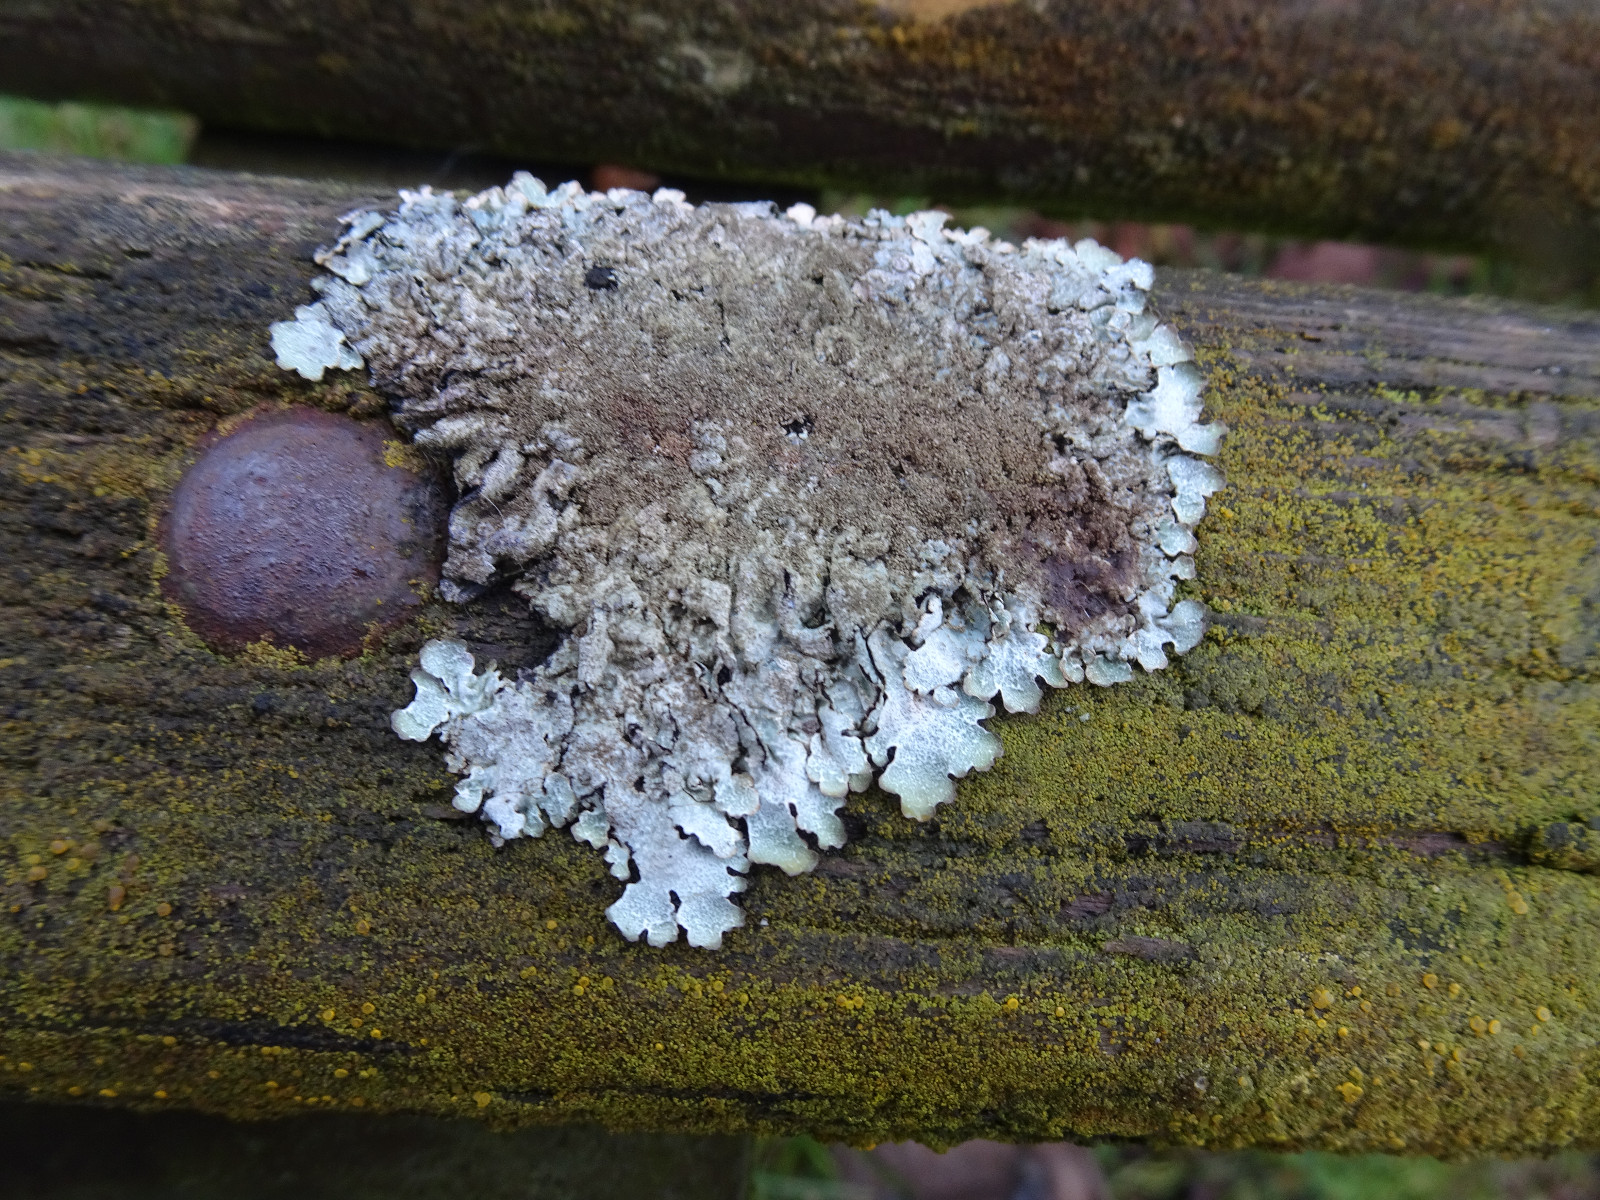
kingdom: Fungi
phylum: Ascomycota
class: Lecanoromycetes
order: Lecanorales
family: Parmeliaceae
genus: Parmelia
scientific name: Parmelia
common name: farve-skållav
